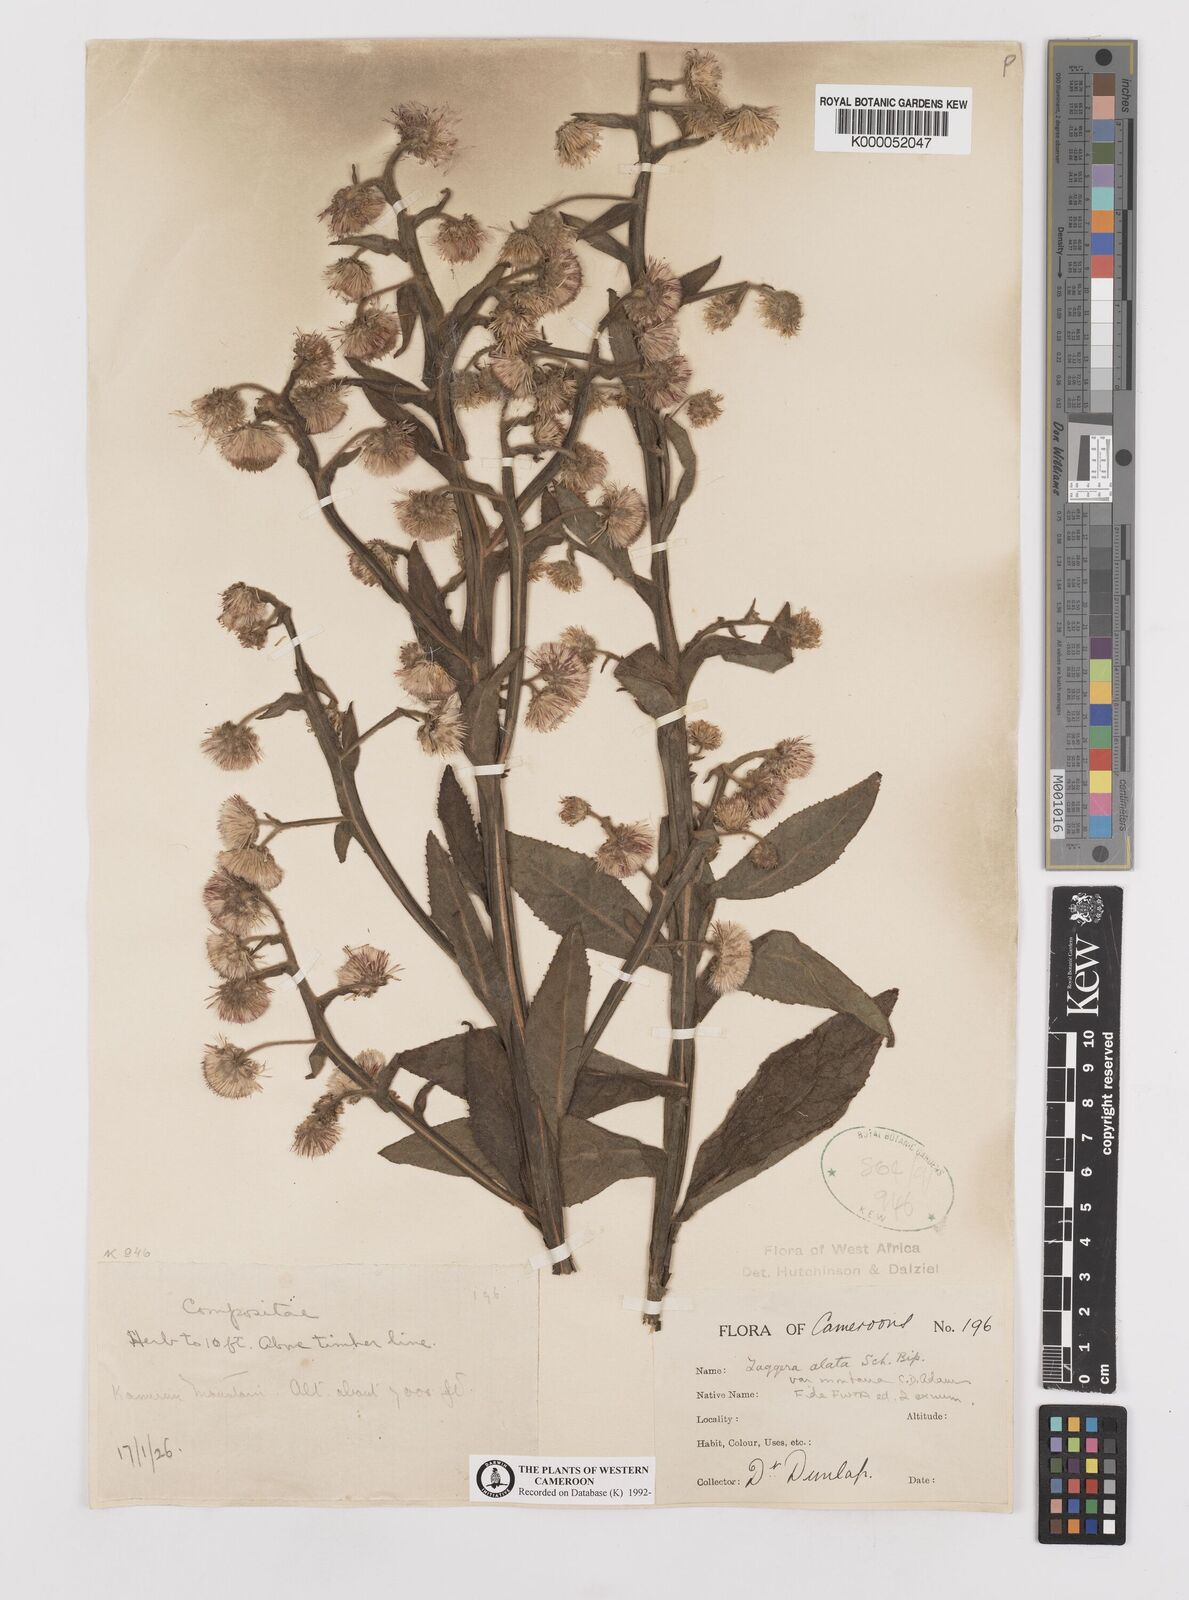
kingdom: Plantae
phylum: Tracheophyta
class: Magnoliopsida
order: Asterales
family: Asteraceae
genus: Laggera
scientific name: Laggera crispata
